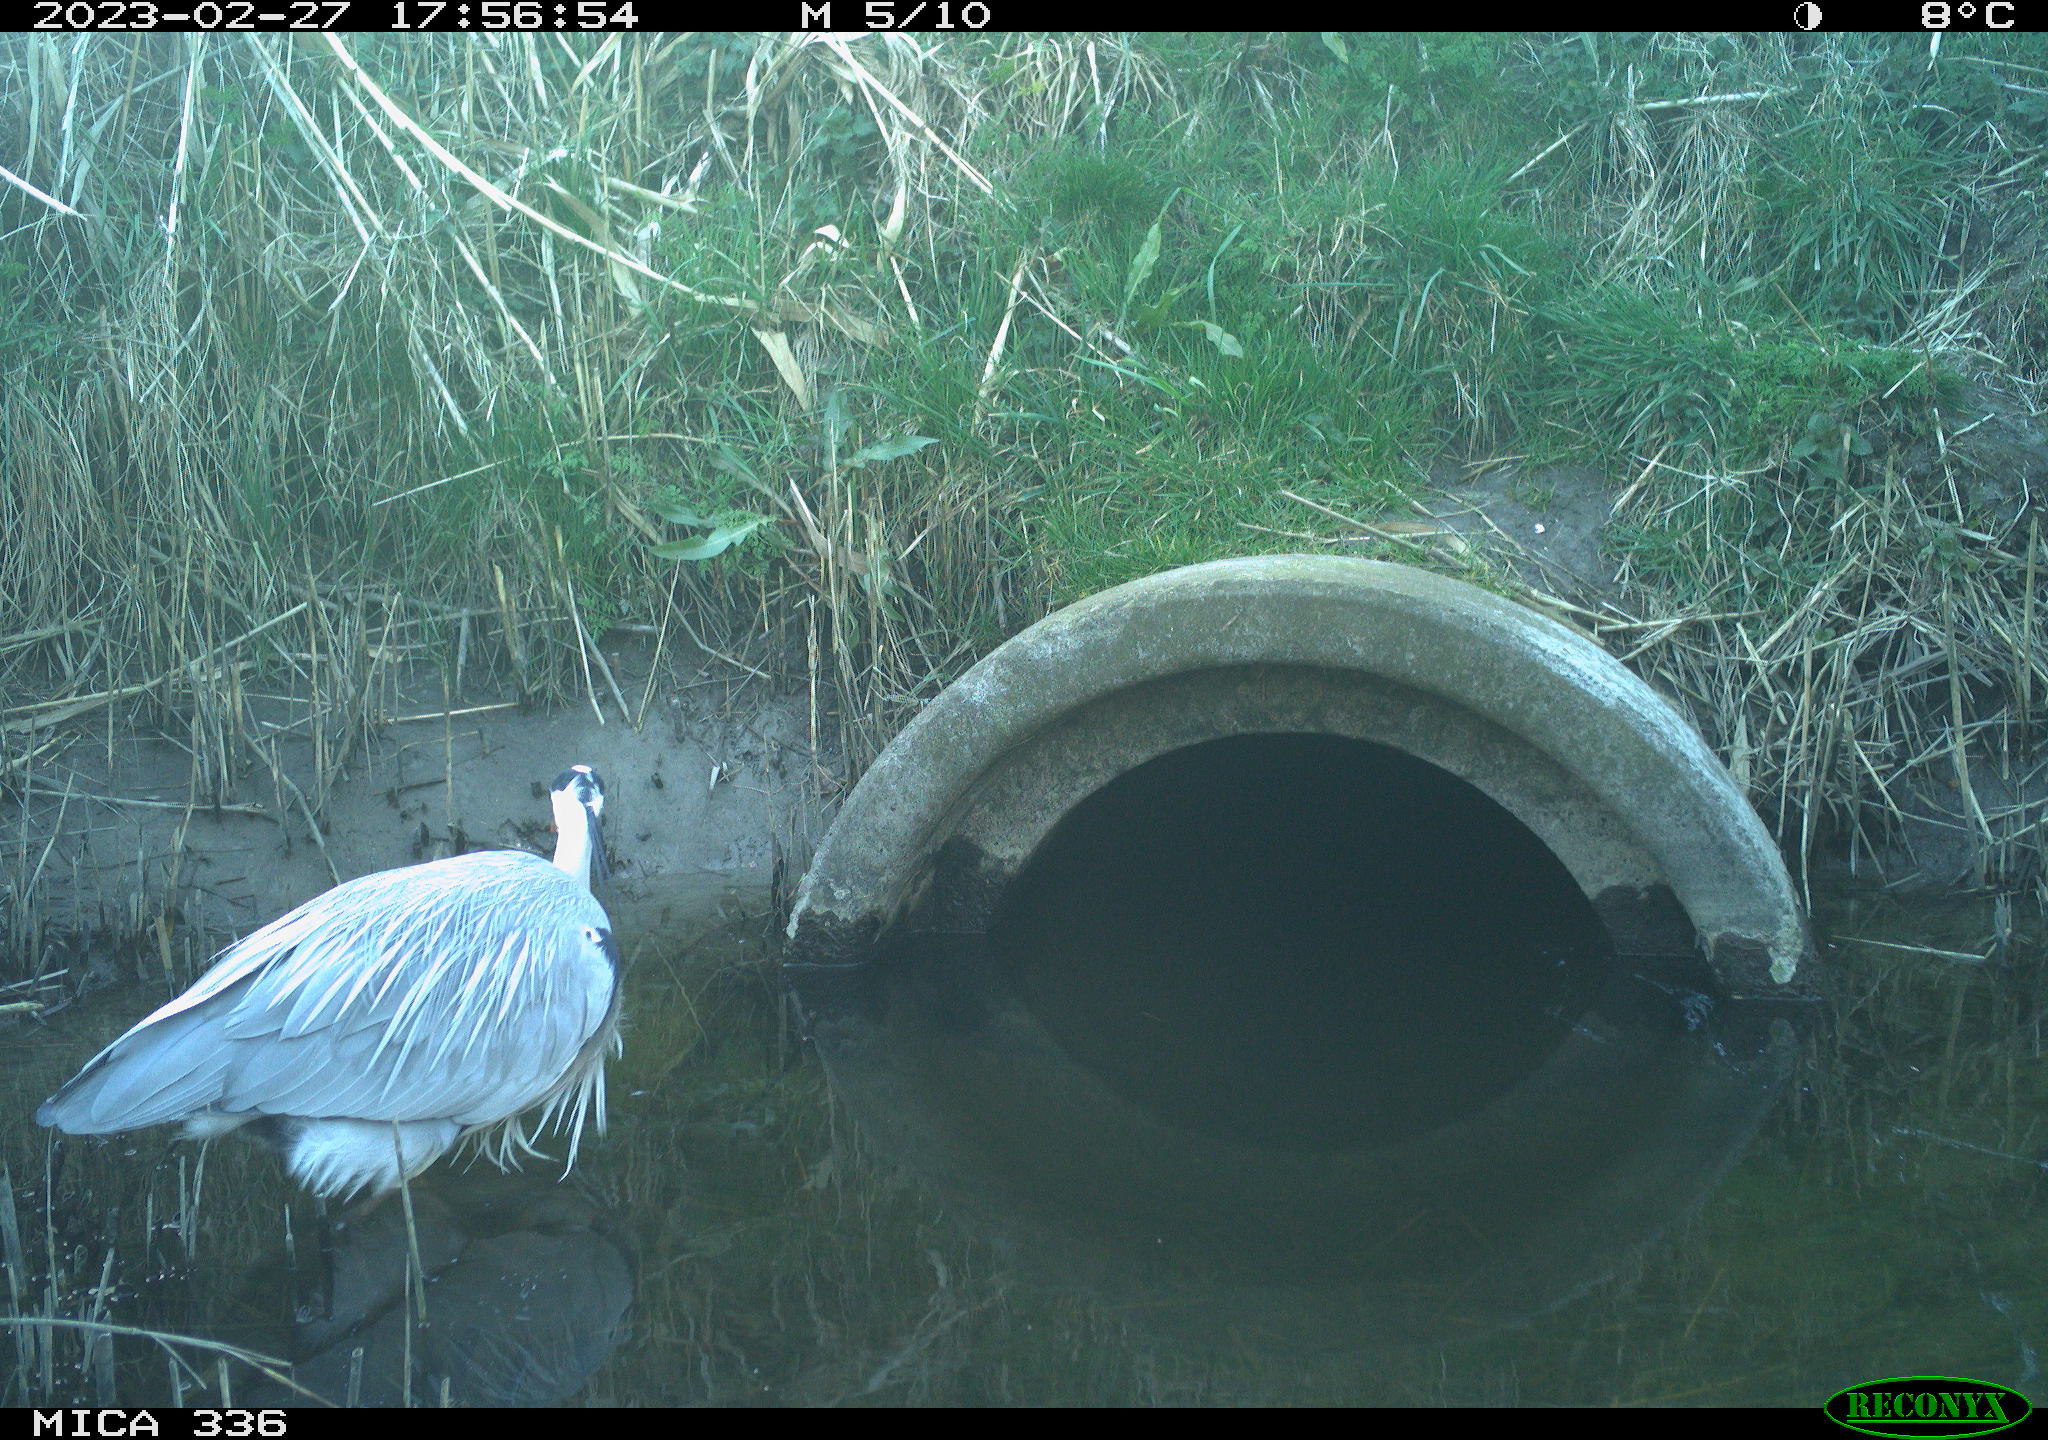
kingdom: Animalia
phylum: Chordata
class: Aves
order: Pelecaniformes
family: Ardeidae
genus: Ardea
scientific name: Ardea cinerea
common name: Grey heron
